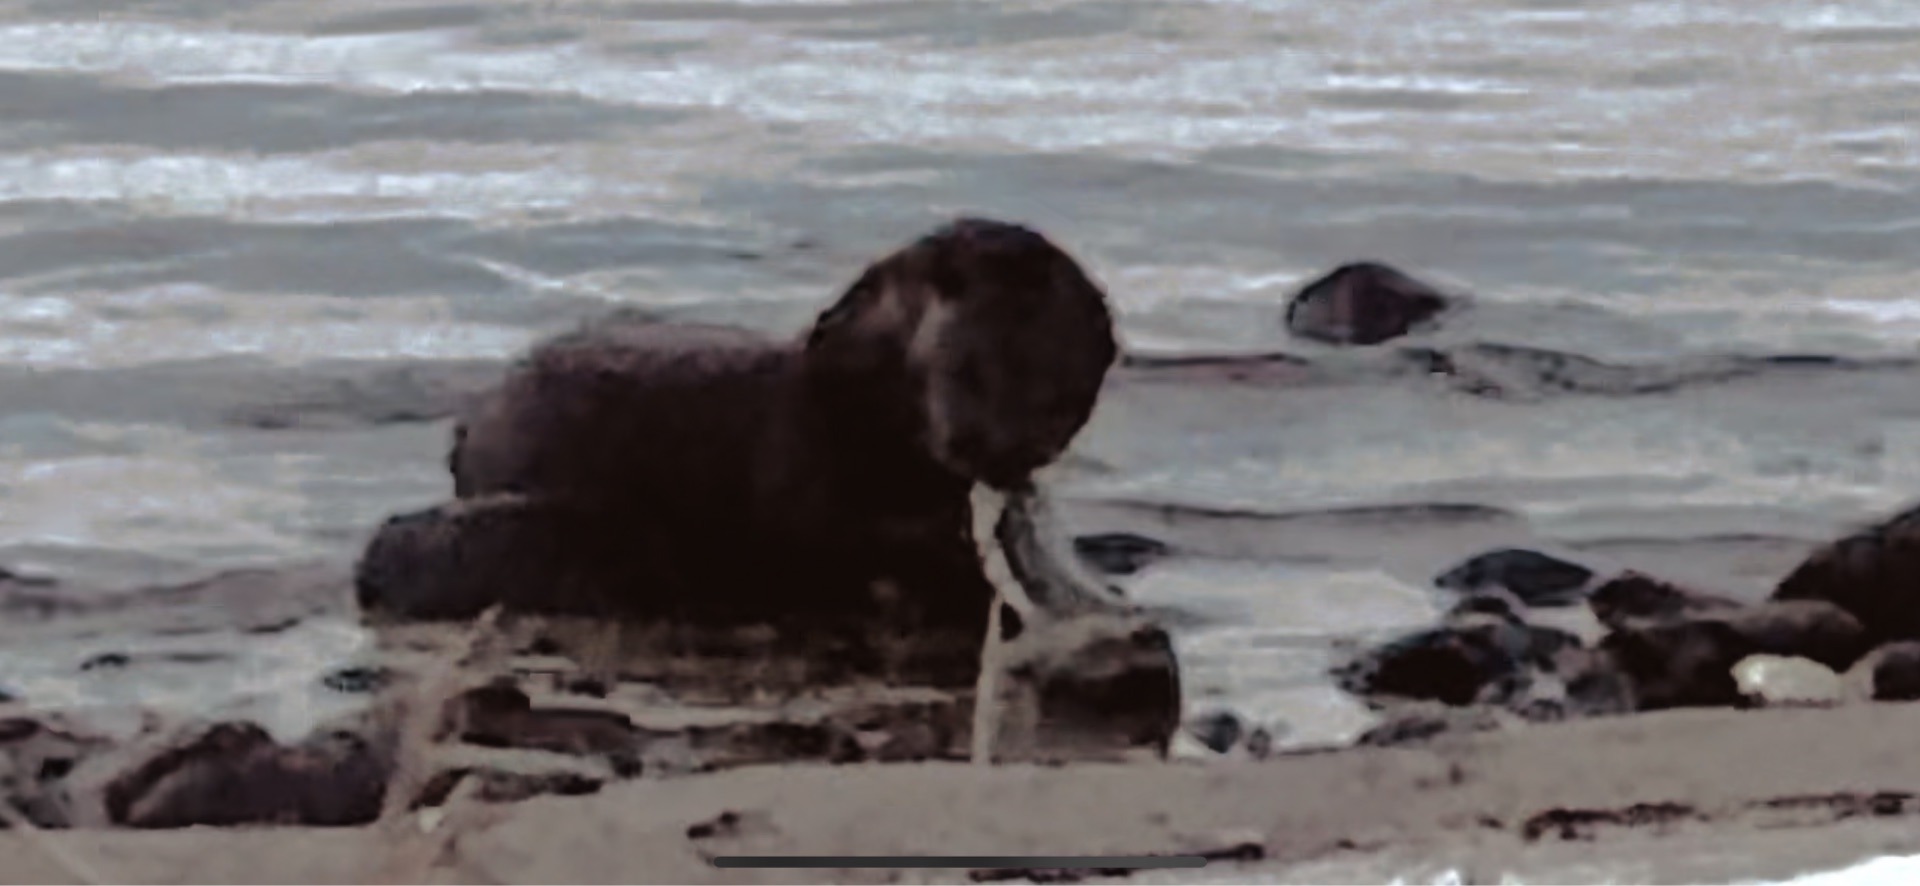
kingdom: Animalia
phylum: Chordata
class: Mammalia
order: Carnivora
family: Mustelidae
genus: Lutra
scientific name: Lutra lutra
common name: Odder
